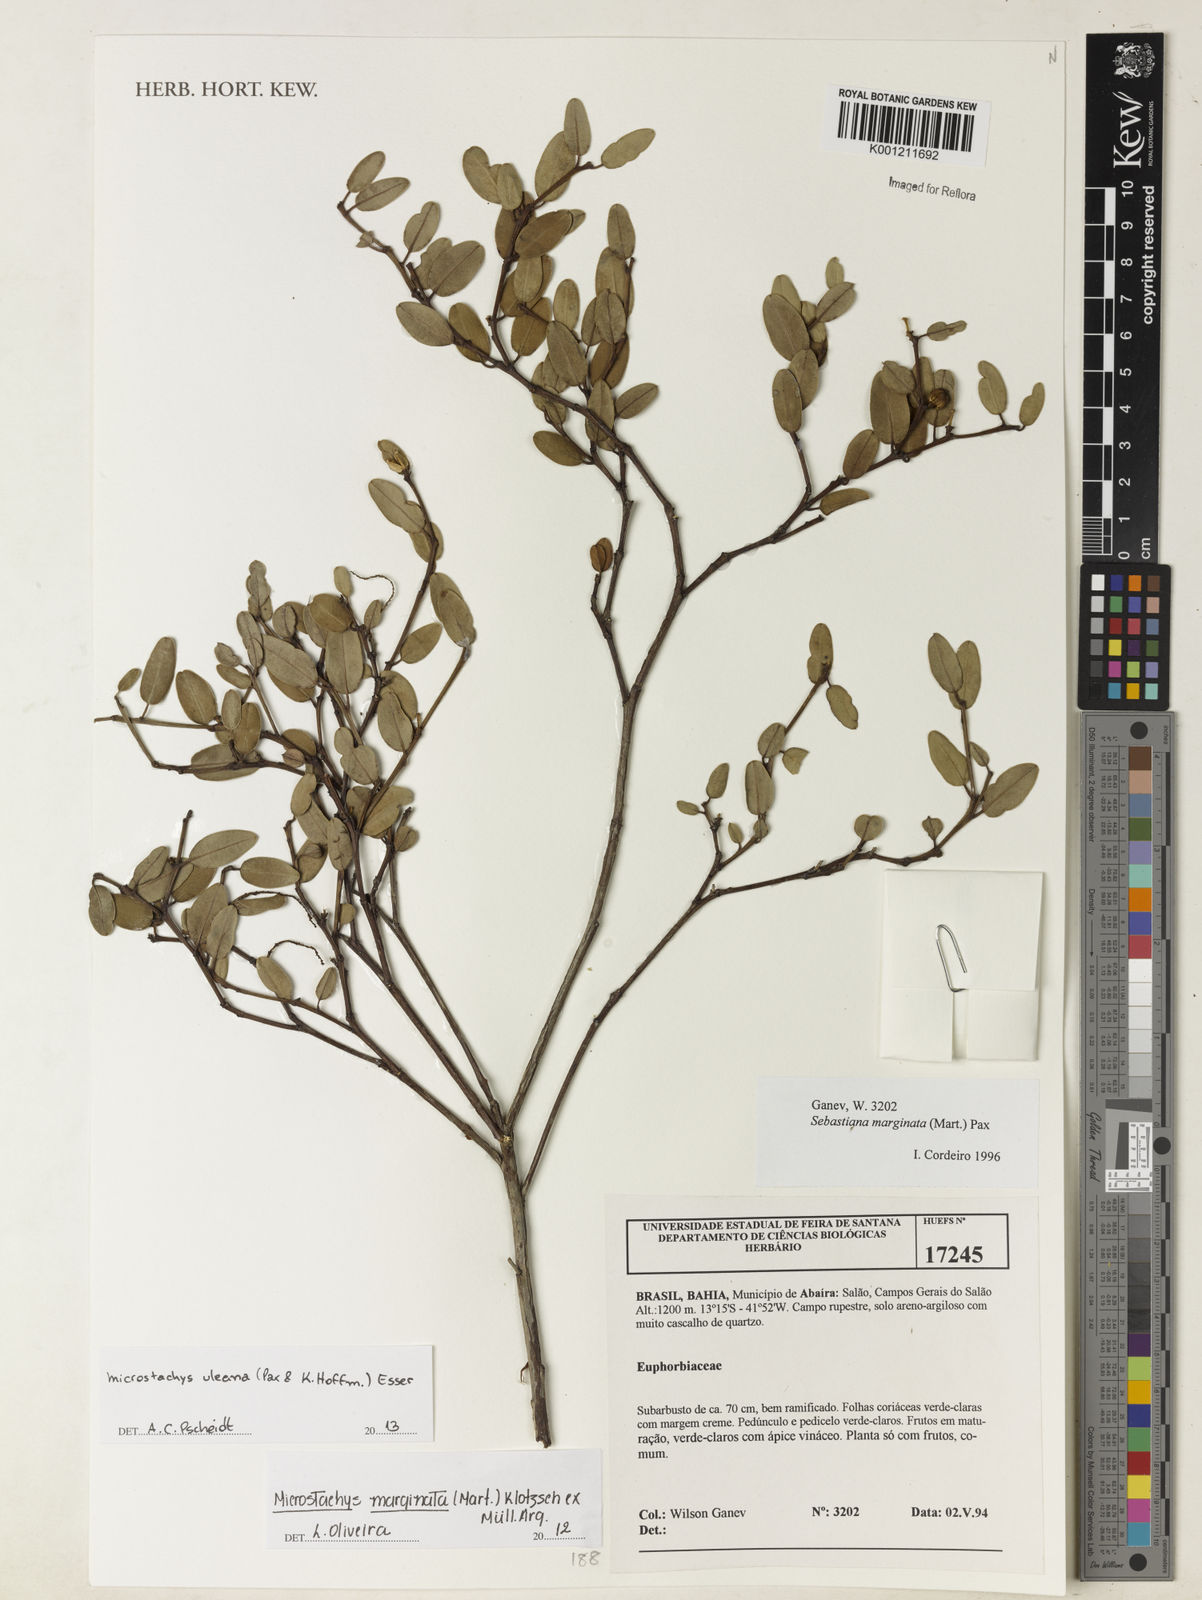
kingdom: Plantae
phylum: Tracheophyta
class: Magnoliopsida
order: Malpighiales
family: Euphorbiaceae
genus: Microstachys
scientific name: Microstachys uleana
